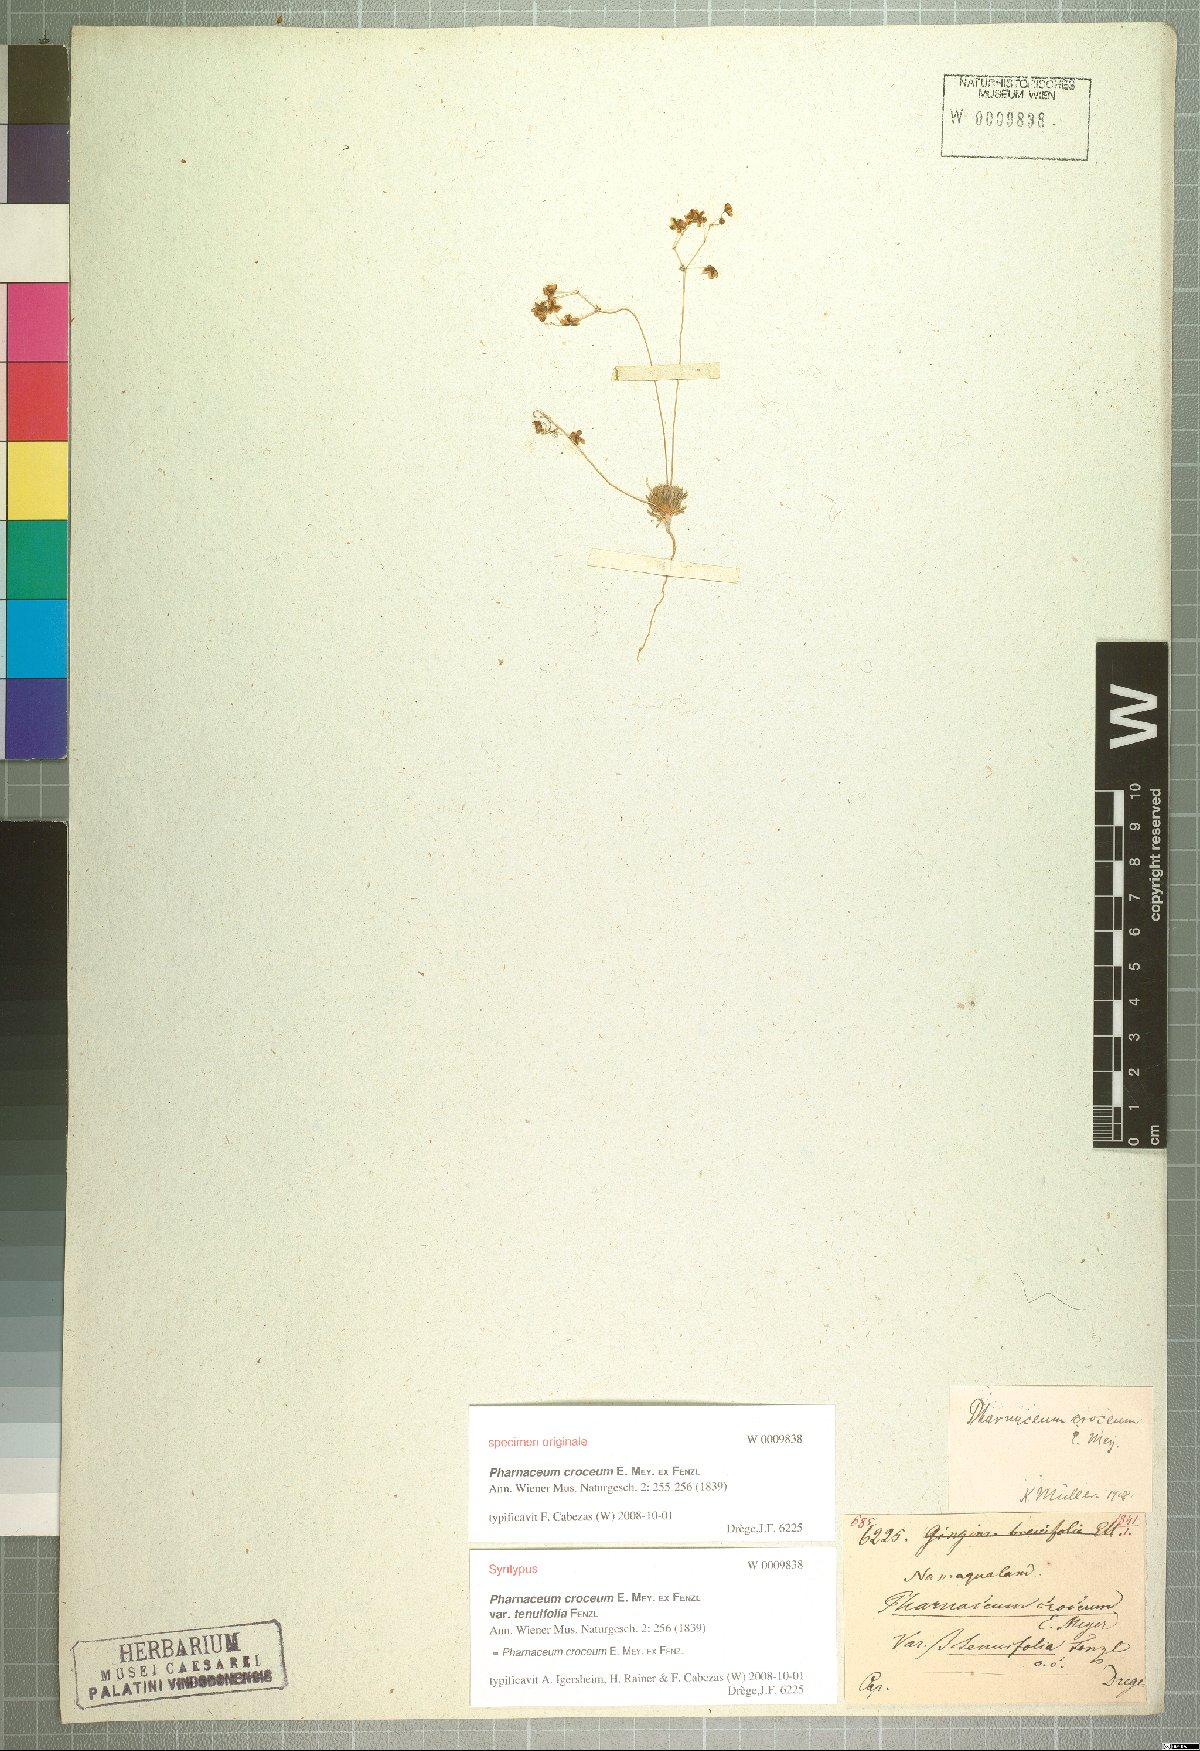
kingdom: Plantae
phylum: Tracheophyta
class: Magnoliopsida
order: Caryophyllales
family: Molluginaceae
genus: Pharnaceum
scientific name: Pharnaceum croceum
